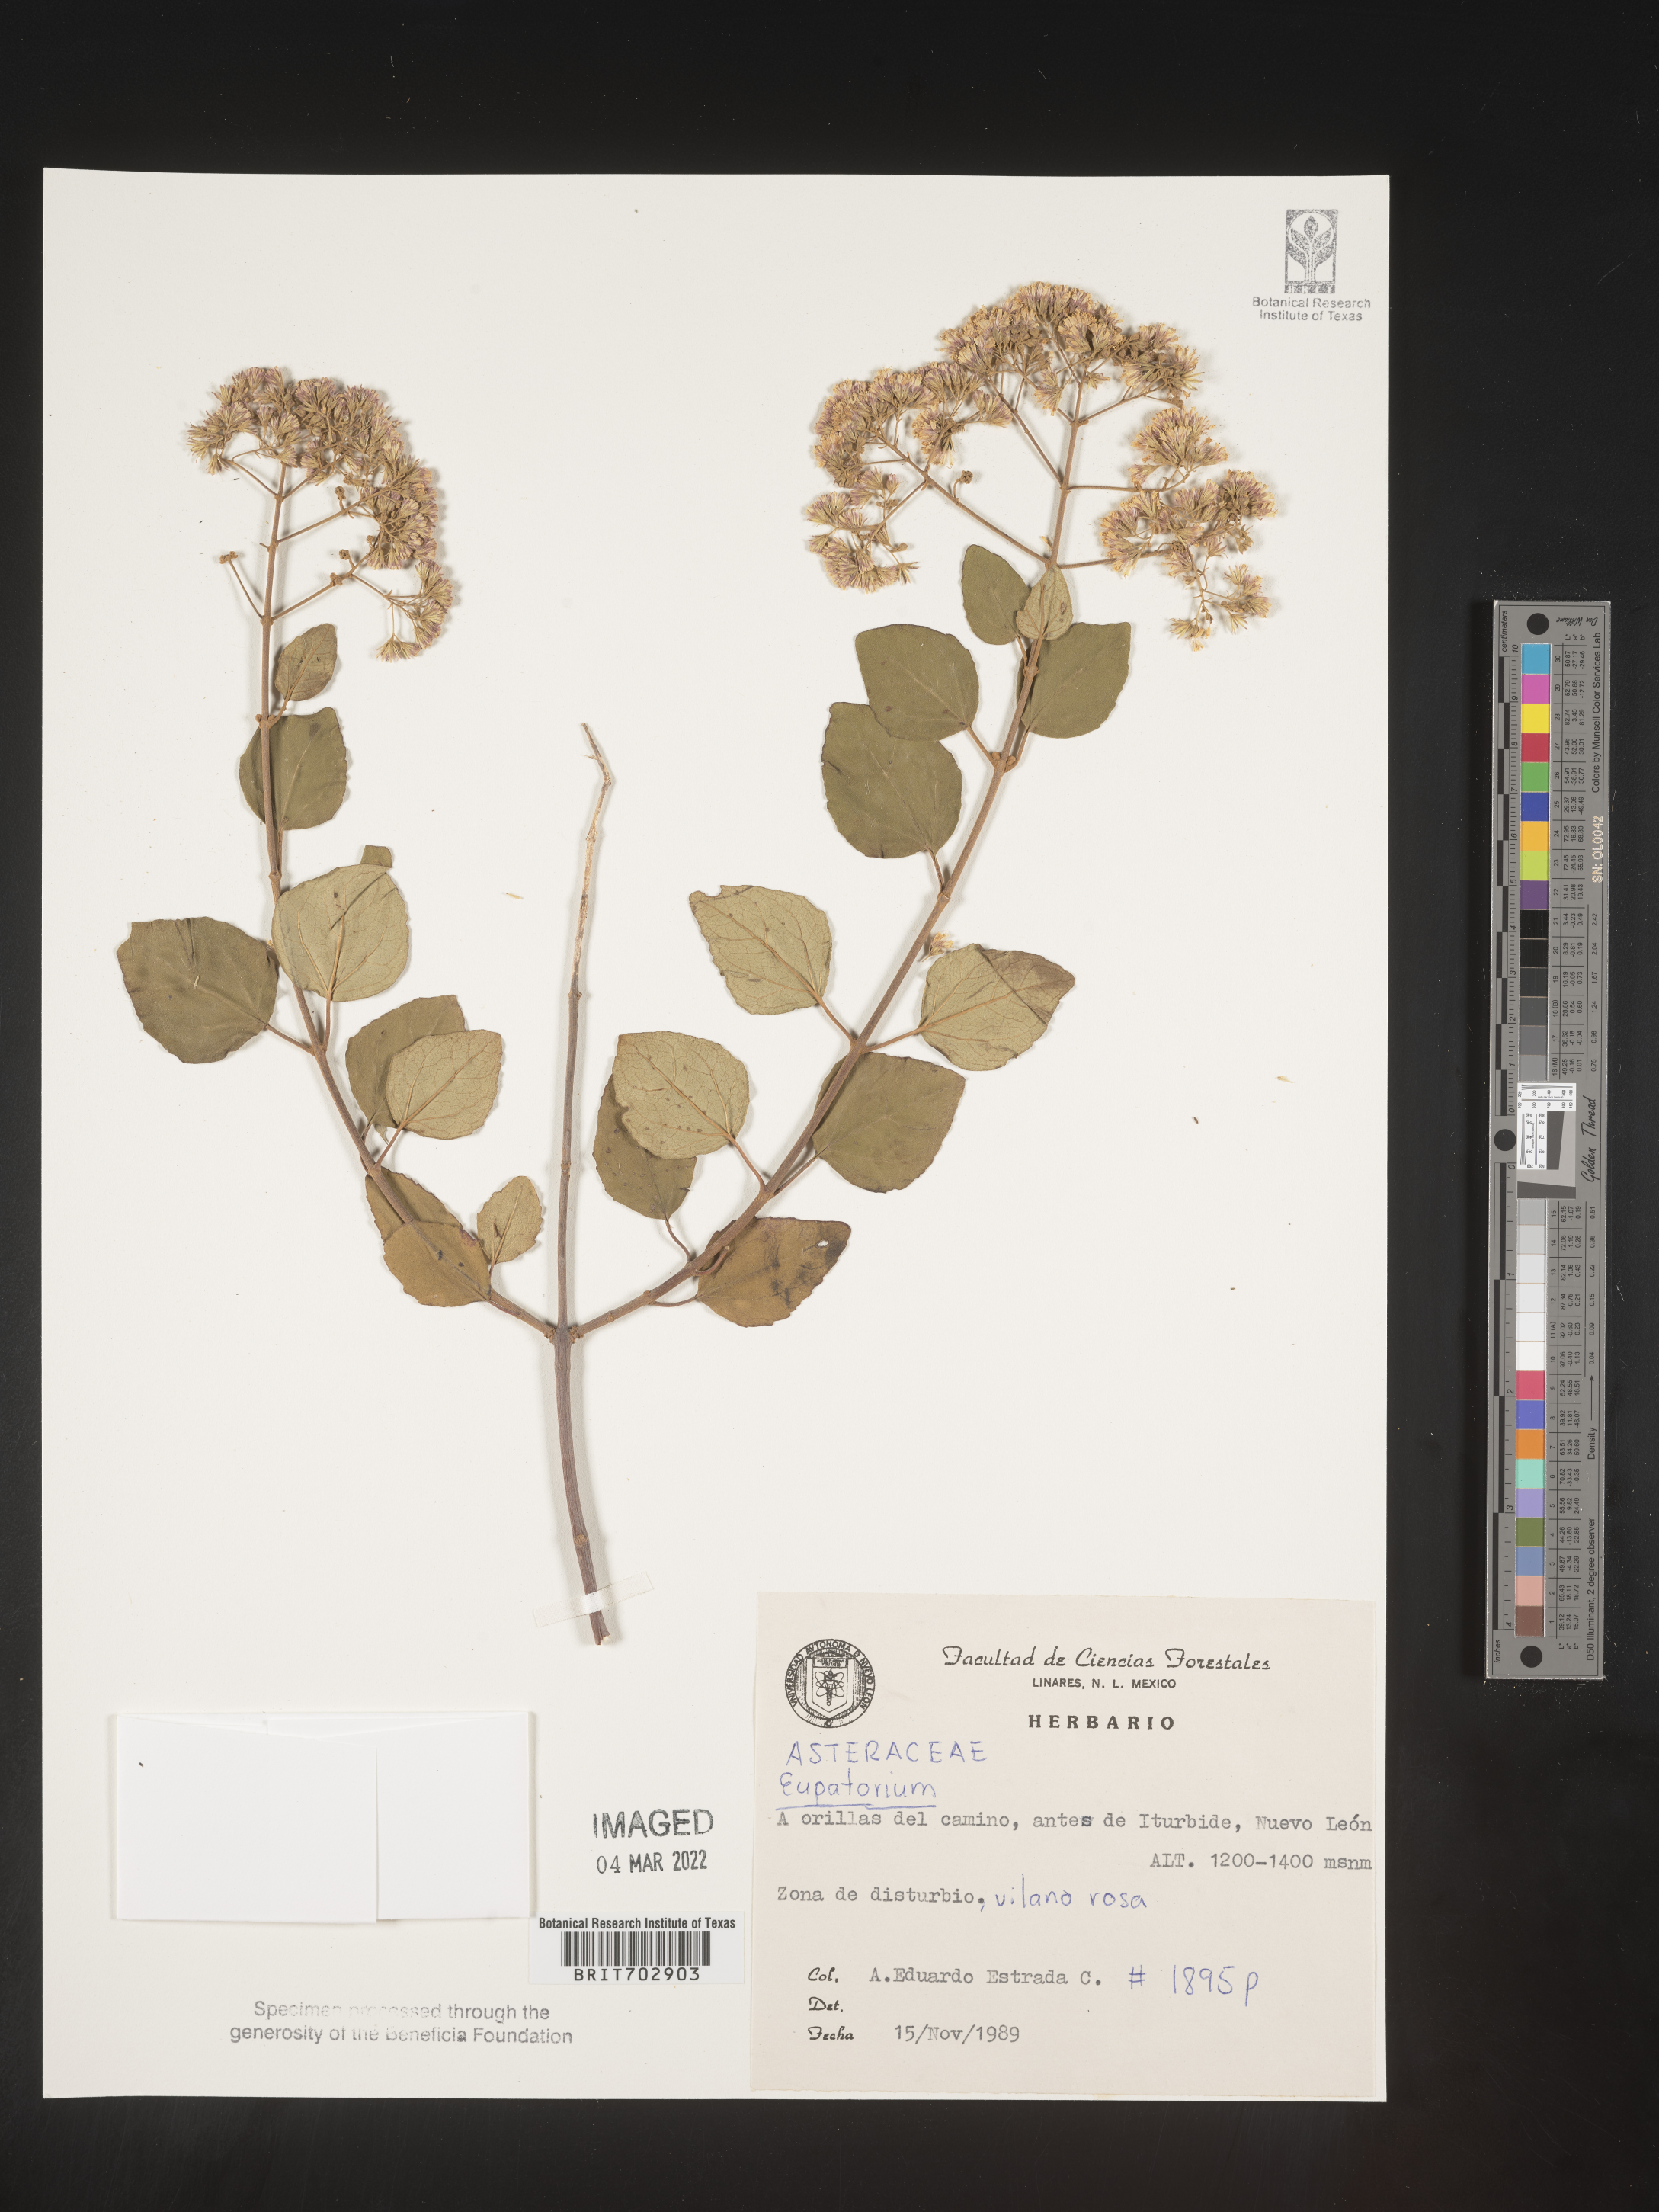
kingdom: Plantae
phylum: Tracheophyta
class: Magnoliopsida
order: Asterales
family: Asteraceae
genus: Eupatorium
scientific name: Eupatorium
